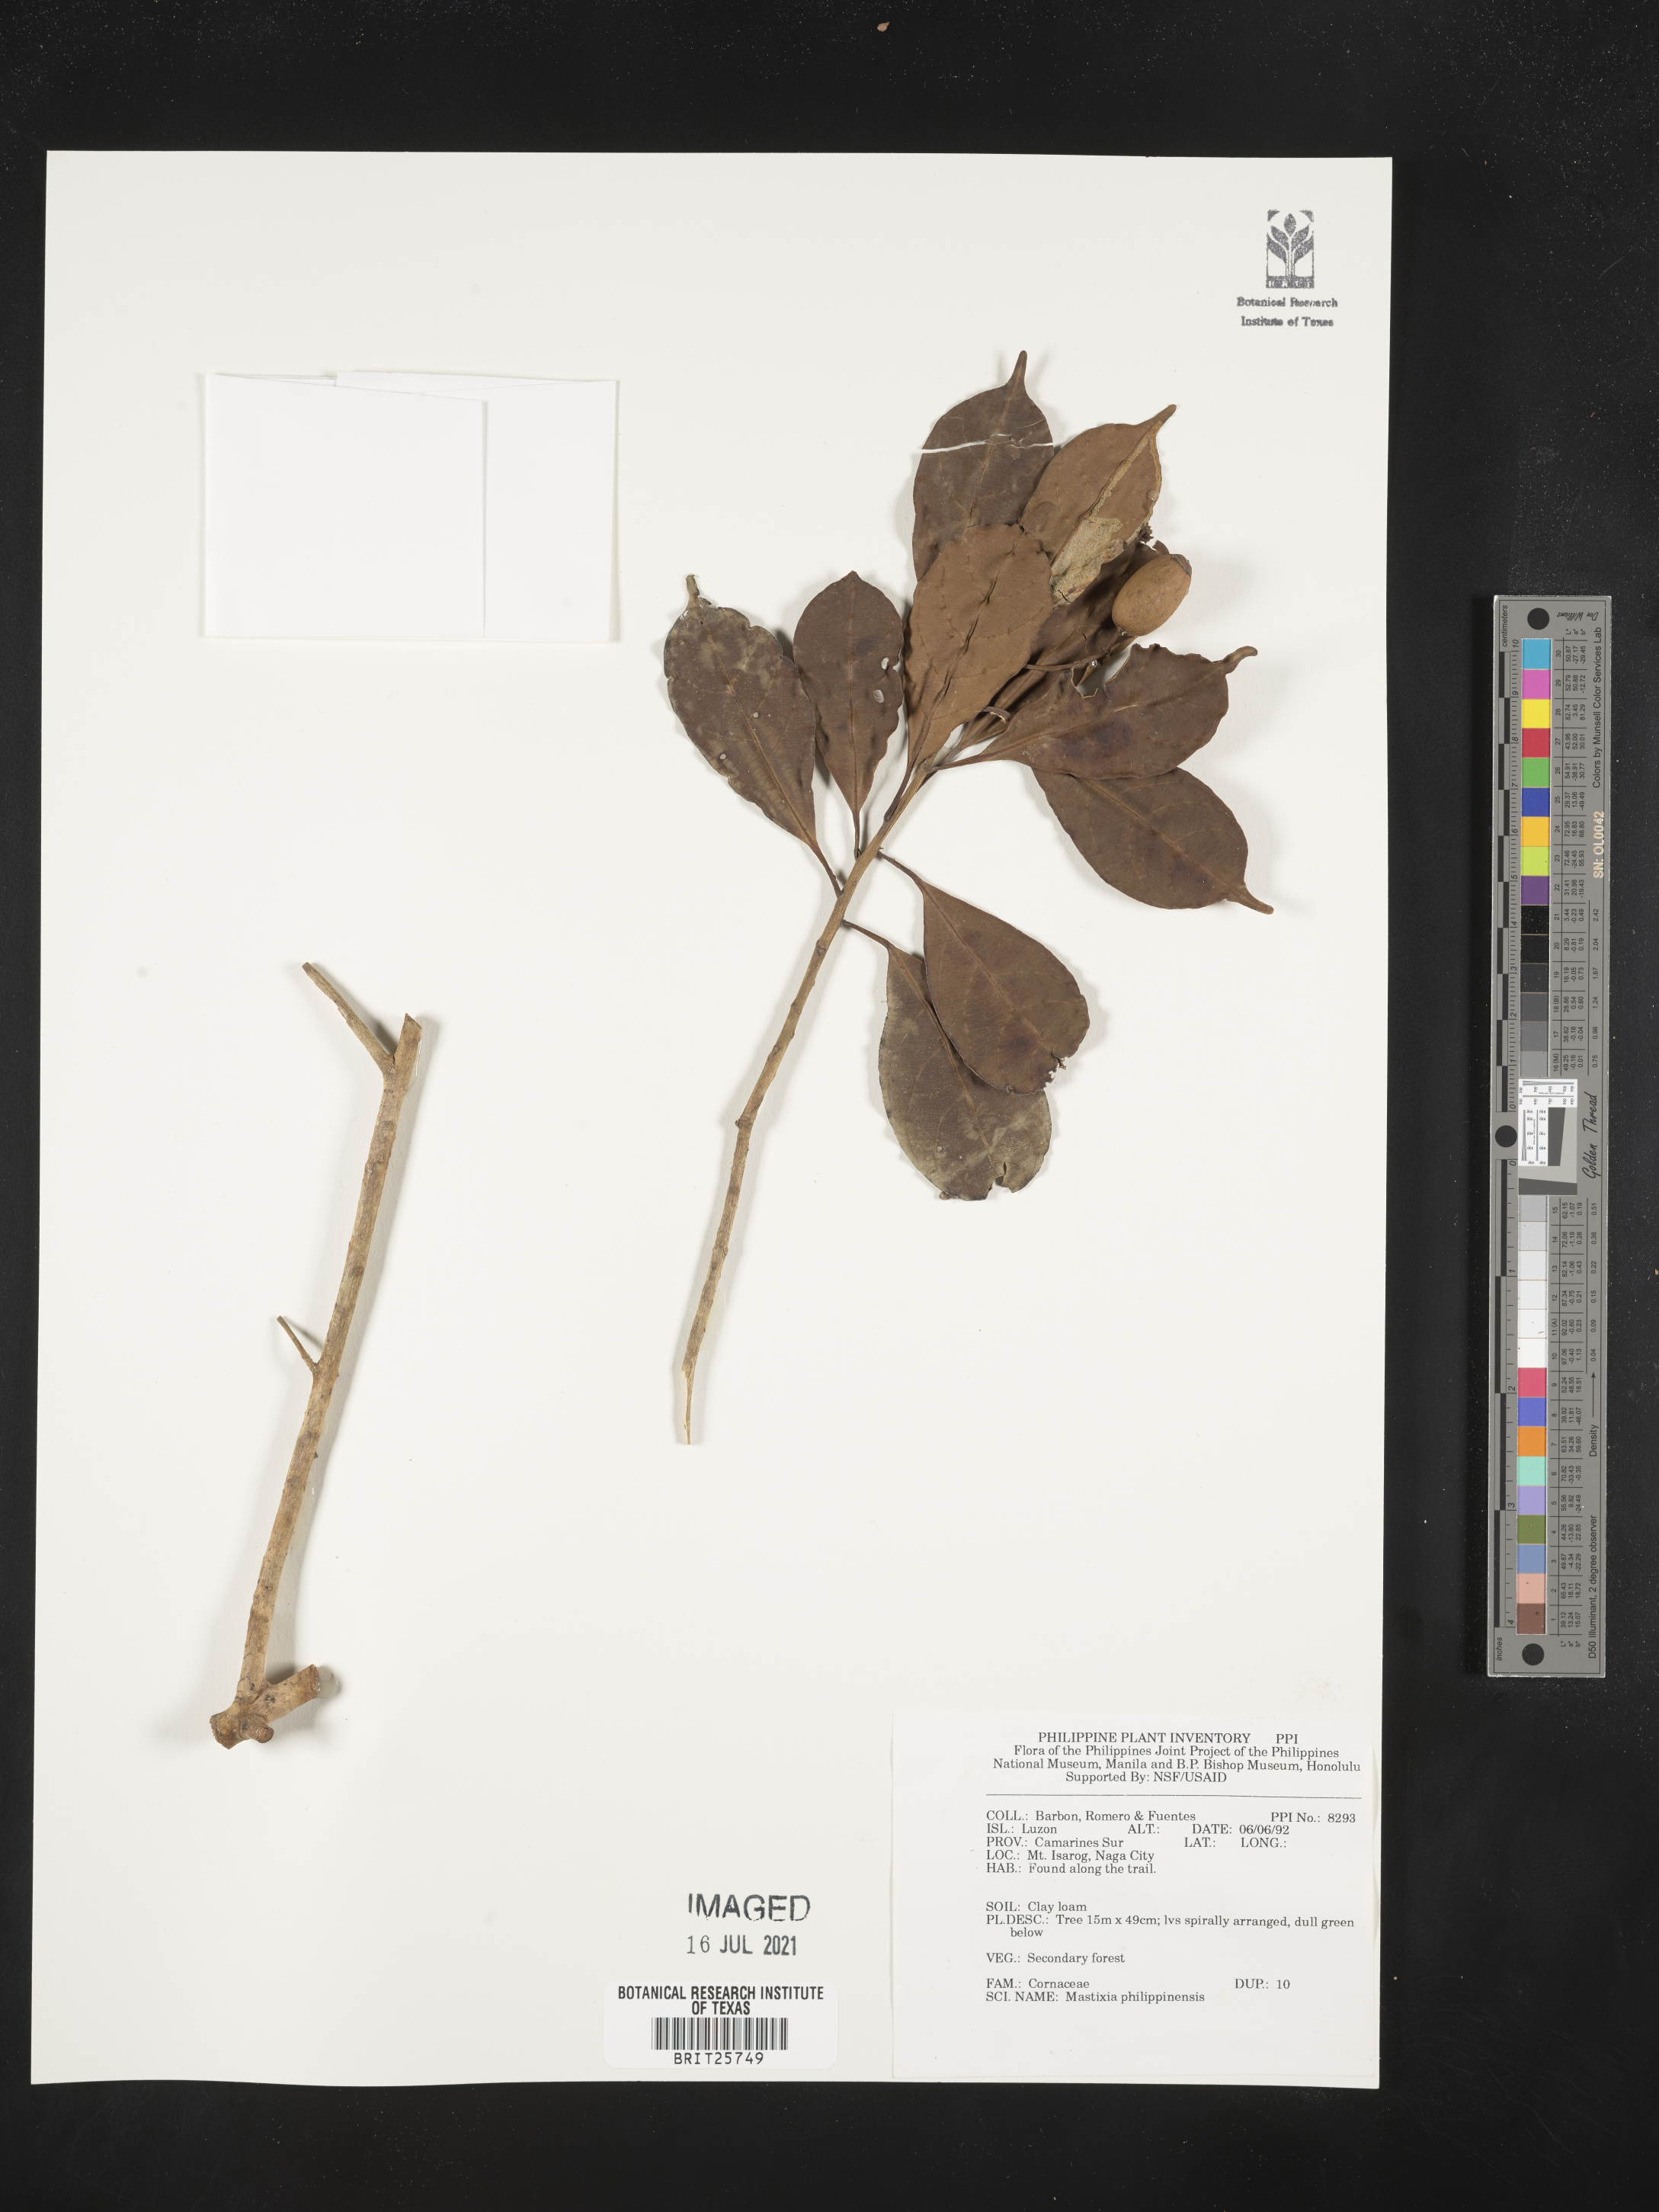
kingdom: Plantae
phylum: Tracheophyta
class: Magnoliopsida
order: Cornales
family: Nyssaceae
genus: Mastixia
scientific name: Mastixia pentandra
